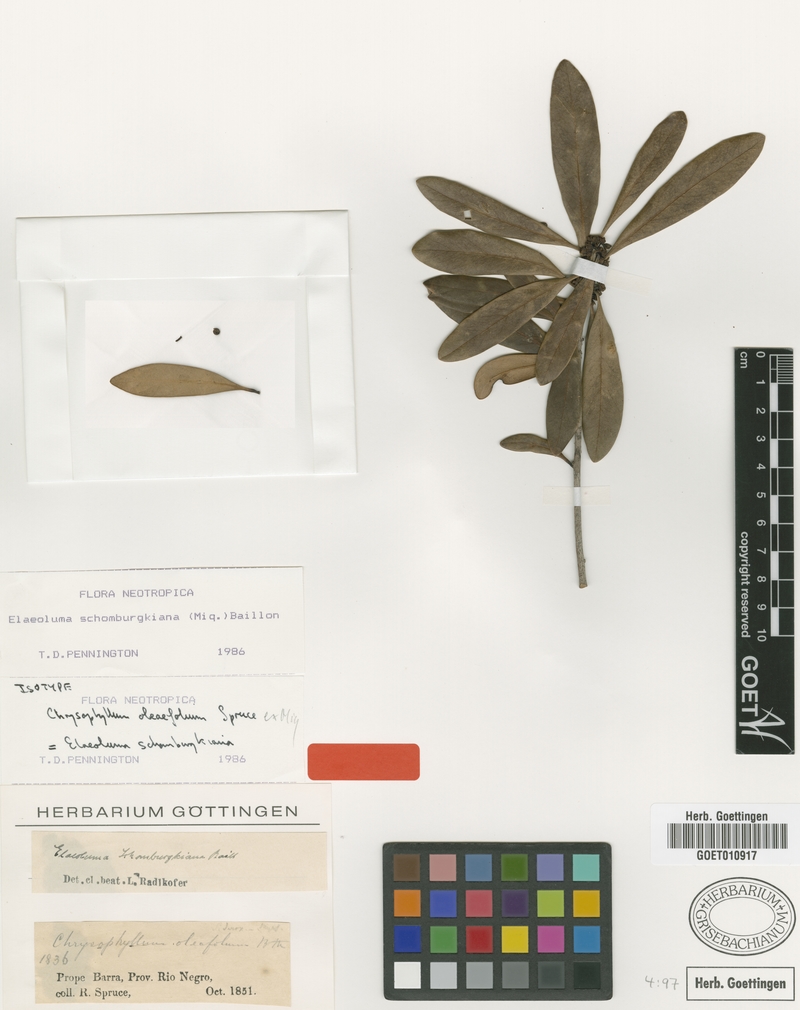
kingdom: Plantae
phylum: Tracheophyta
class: Magnoliopsida
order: Ericales
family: Sapotaceae
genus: Elaeoluma
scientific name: Elaeoluma schomburgkiana
